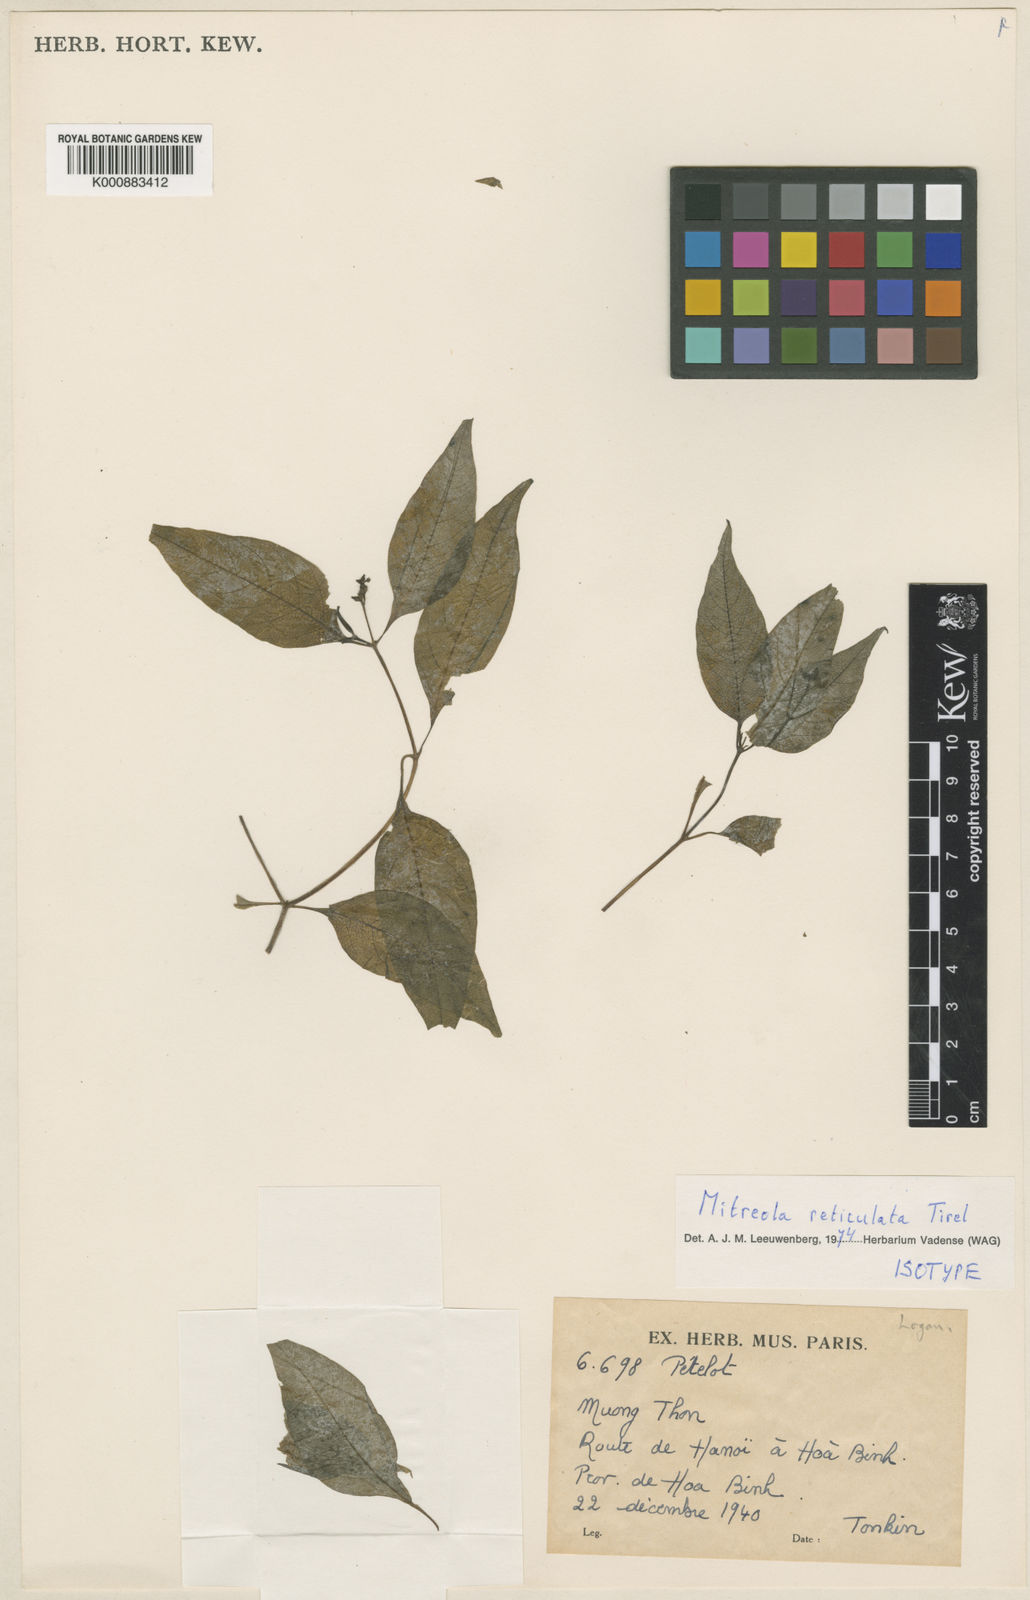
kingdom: Plantae
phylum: Tracheophyta
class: Magnoliopsida
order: Gentianales
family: Loganiaceae
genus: Mitreola
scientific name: Mitreola reticulata
